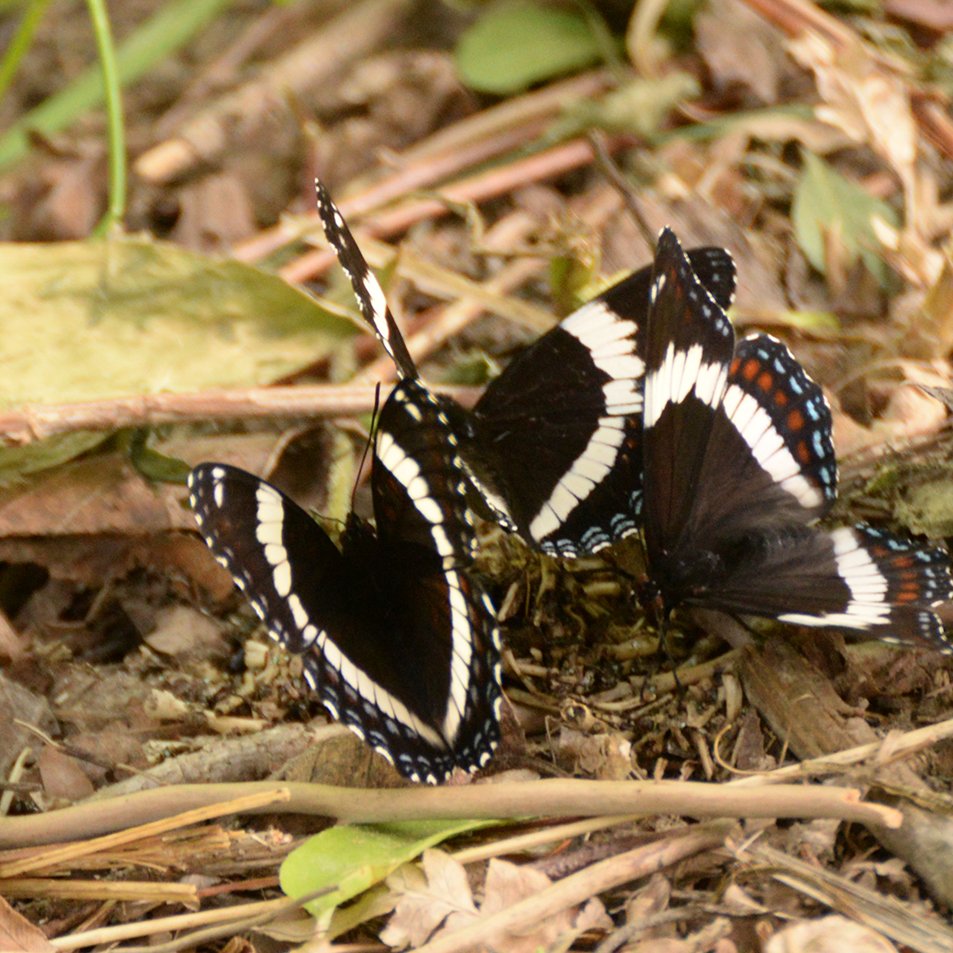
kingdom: Animalia
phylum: Arthropoda
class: Insecta
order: Lepidoptera
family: Nymphalidae
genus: Limenitis
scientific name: Limenitis arthemis
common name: Red-spotted Admiral
